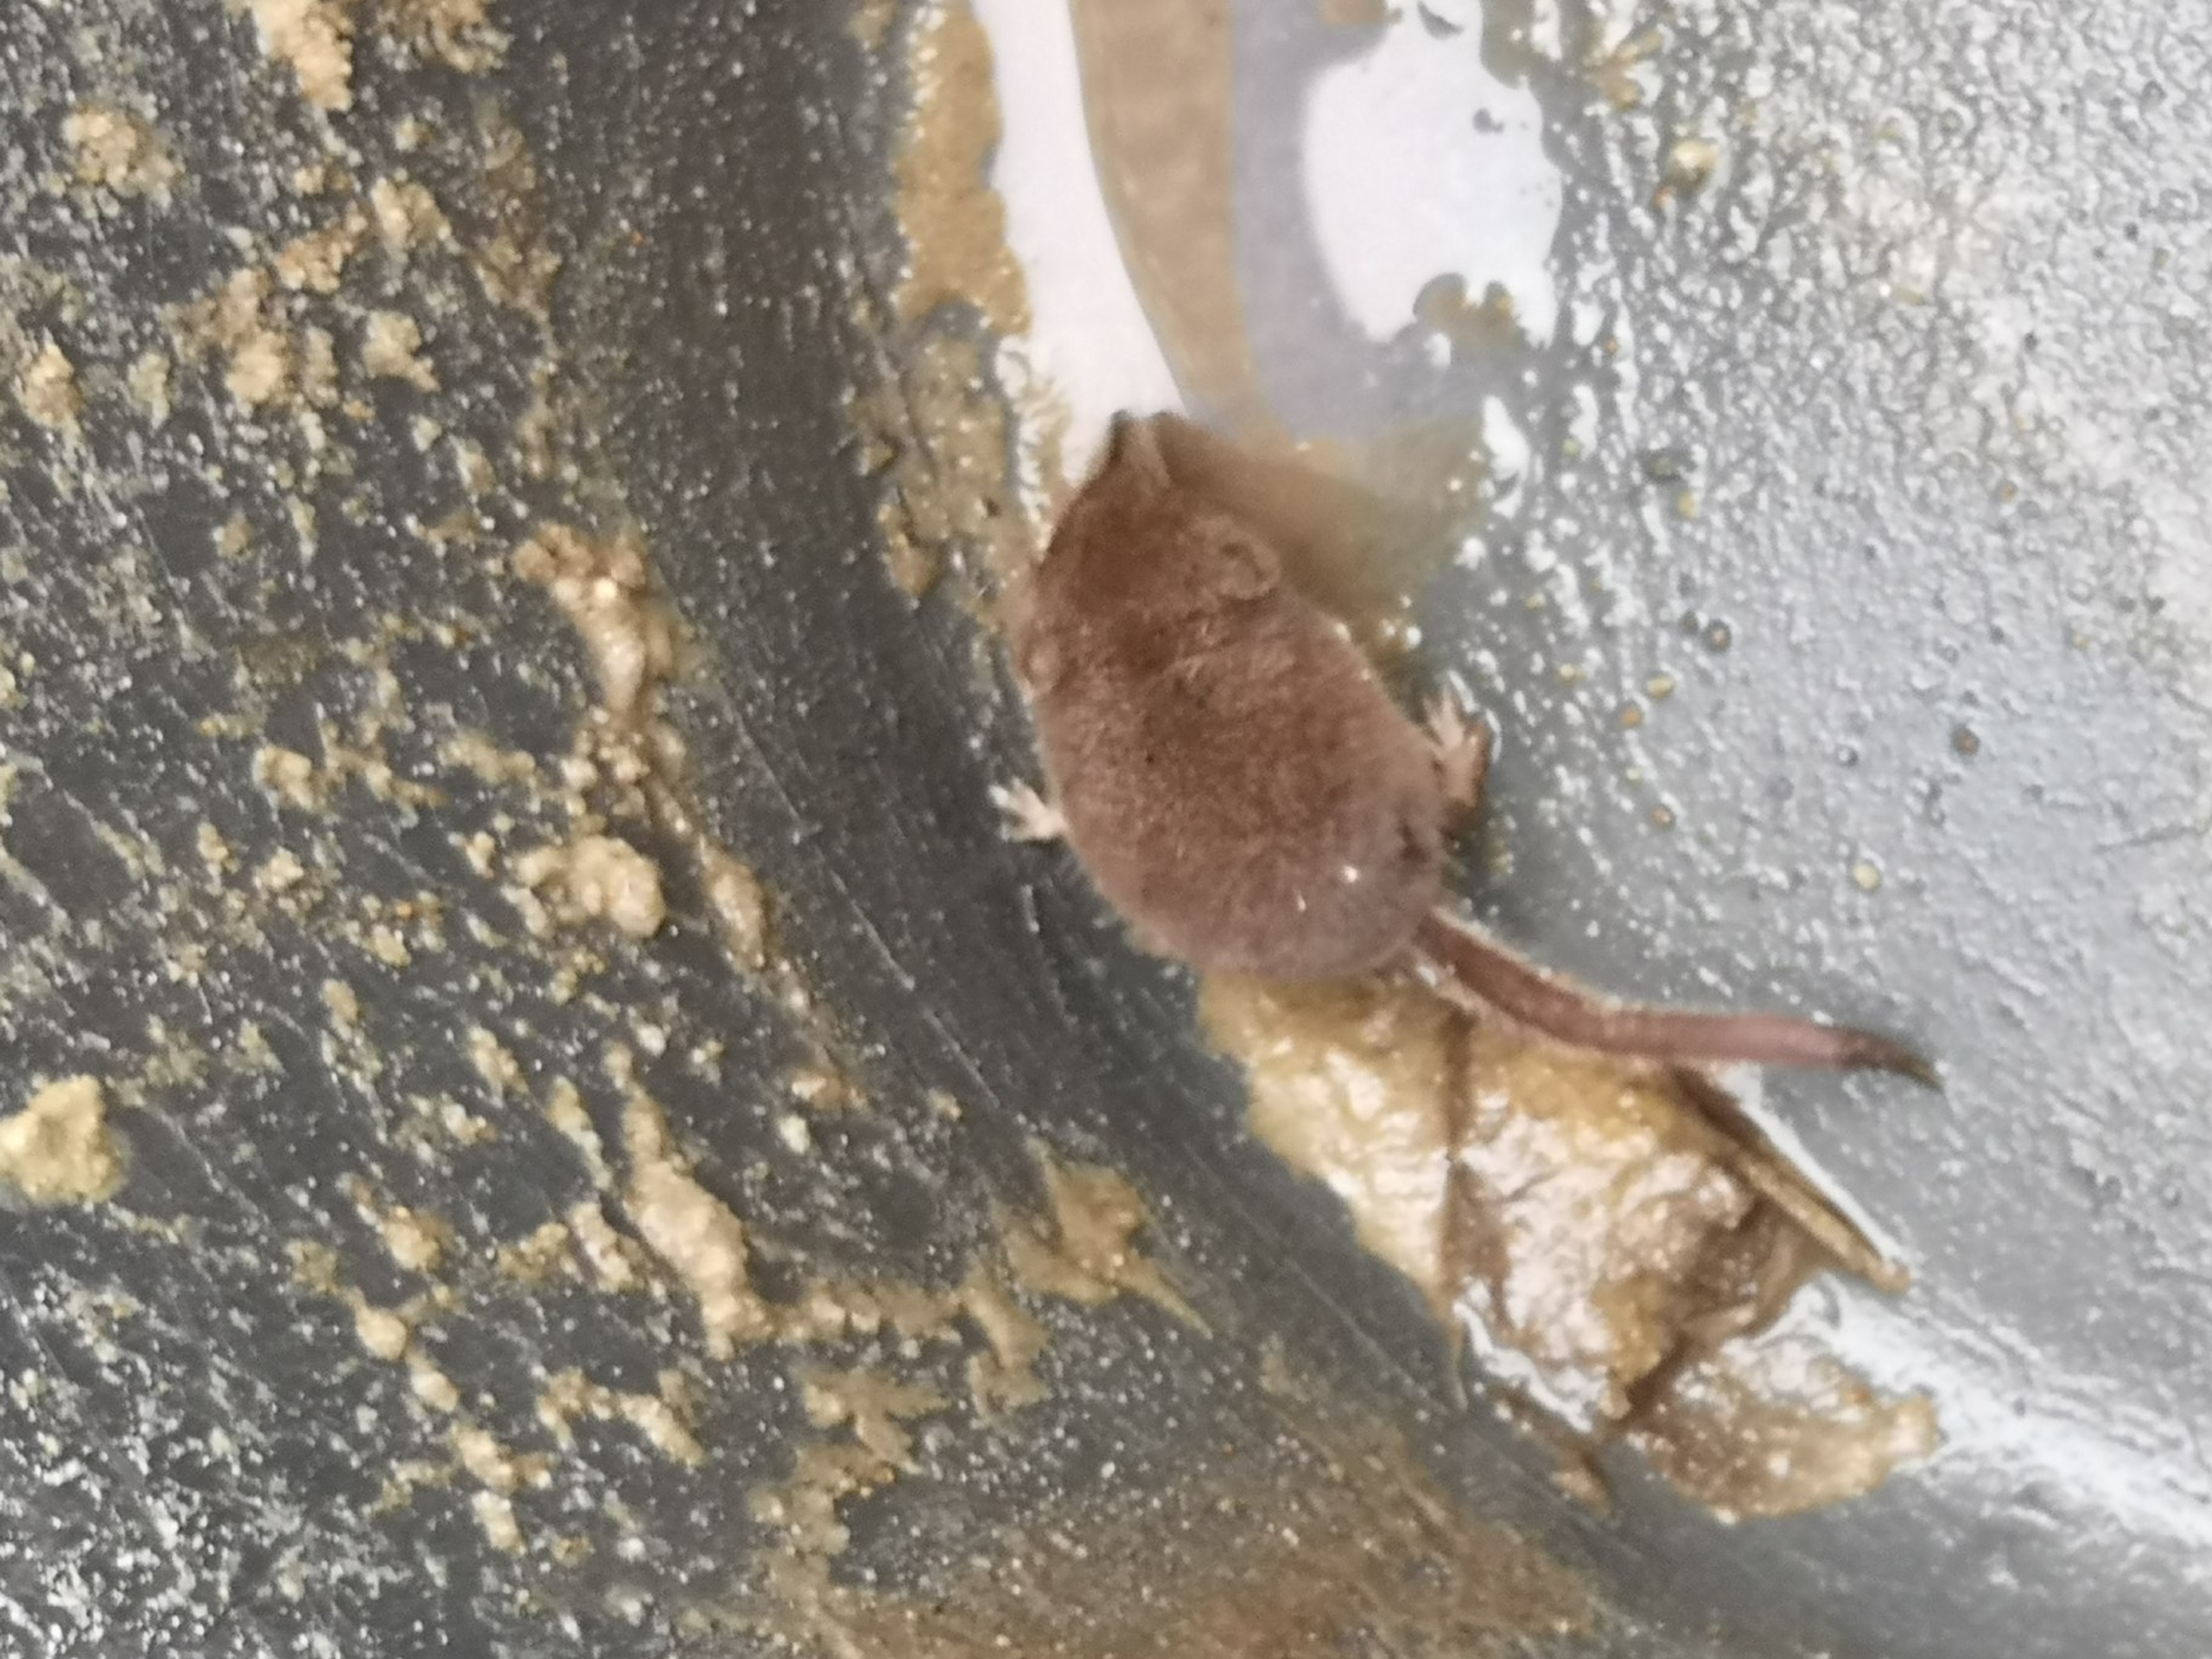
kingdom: Animalia
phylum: Chordata
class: Mammalia
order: Soricomorpha
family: Soricidae
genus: Sorex
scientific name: Sorex minutus
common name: Dværgspidsmus
